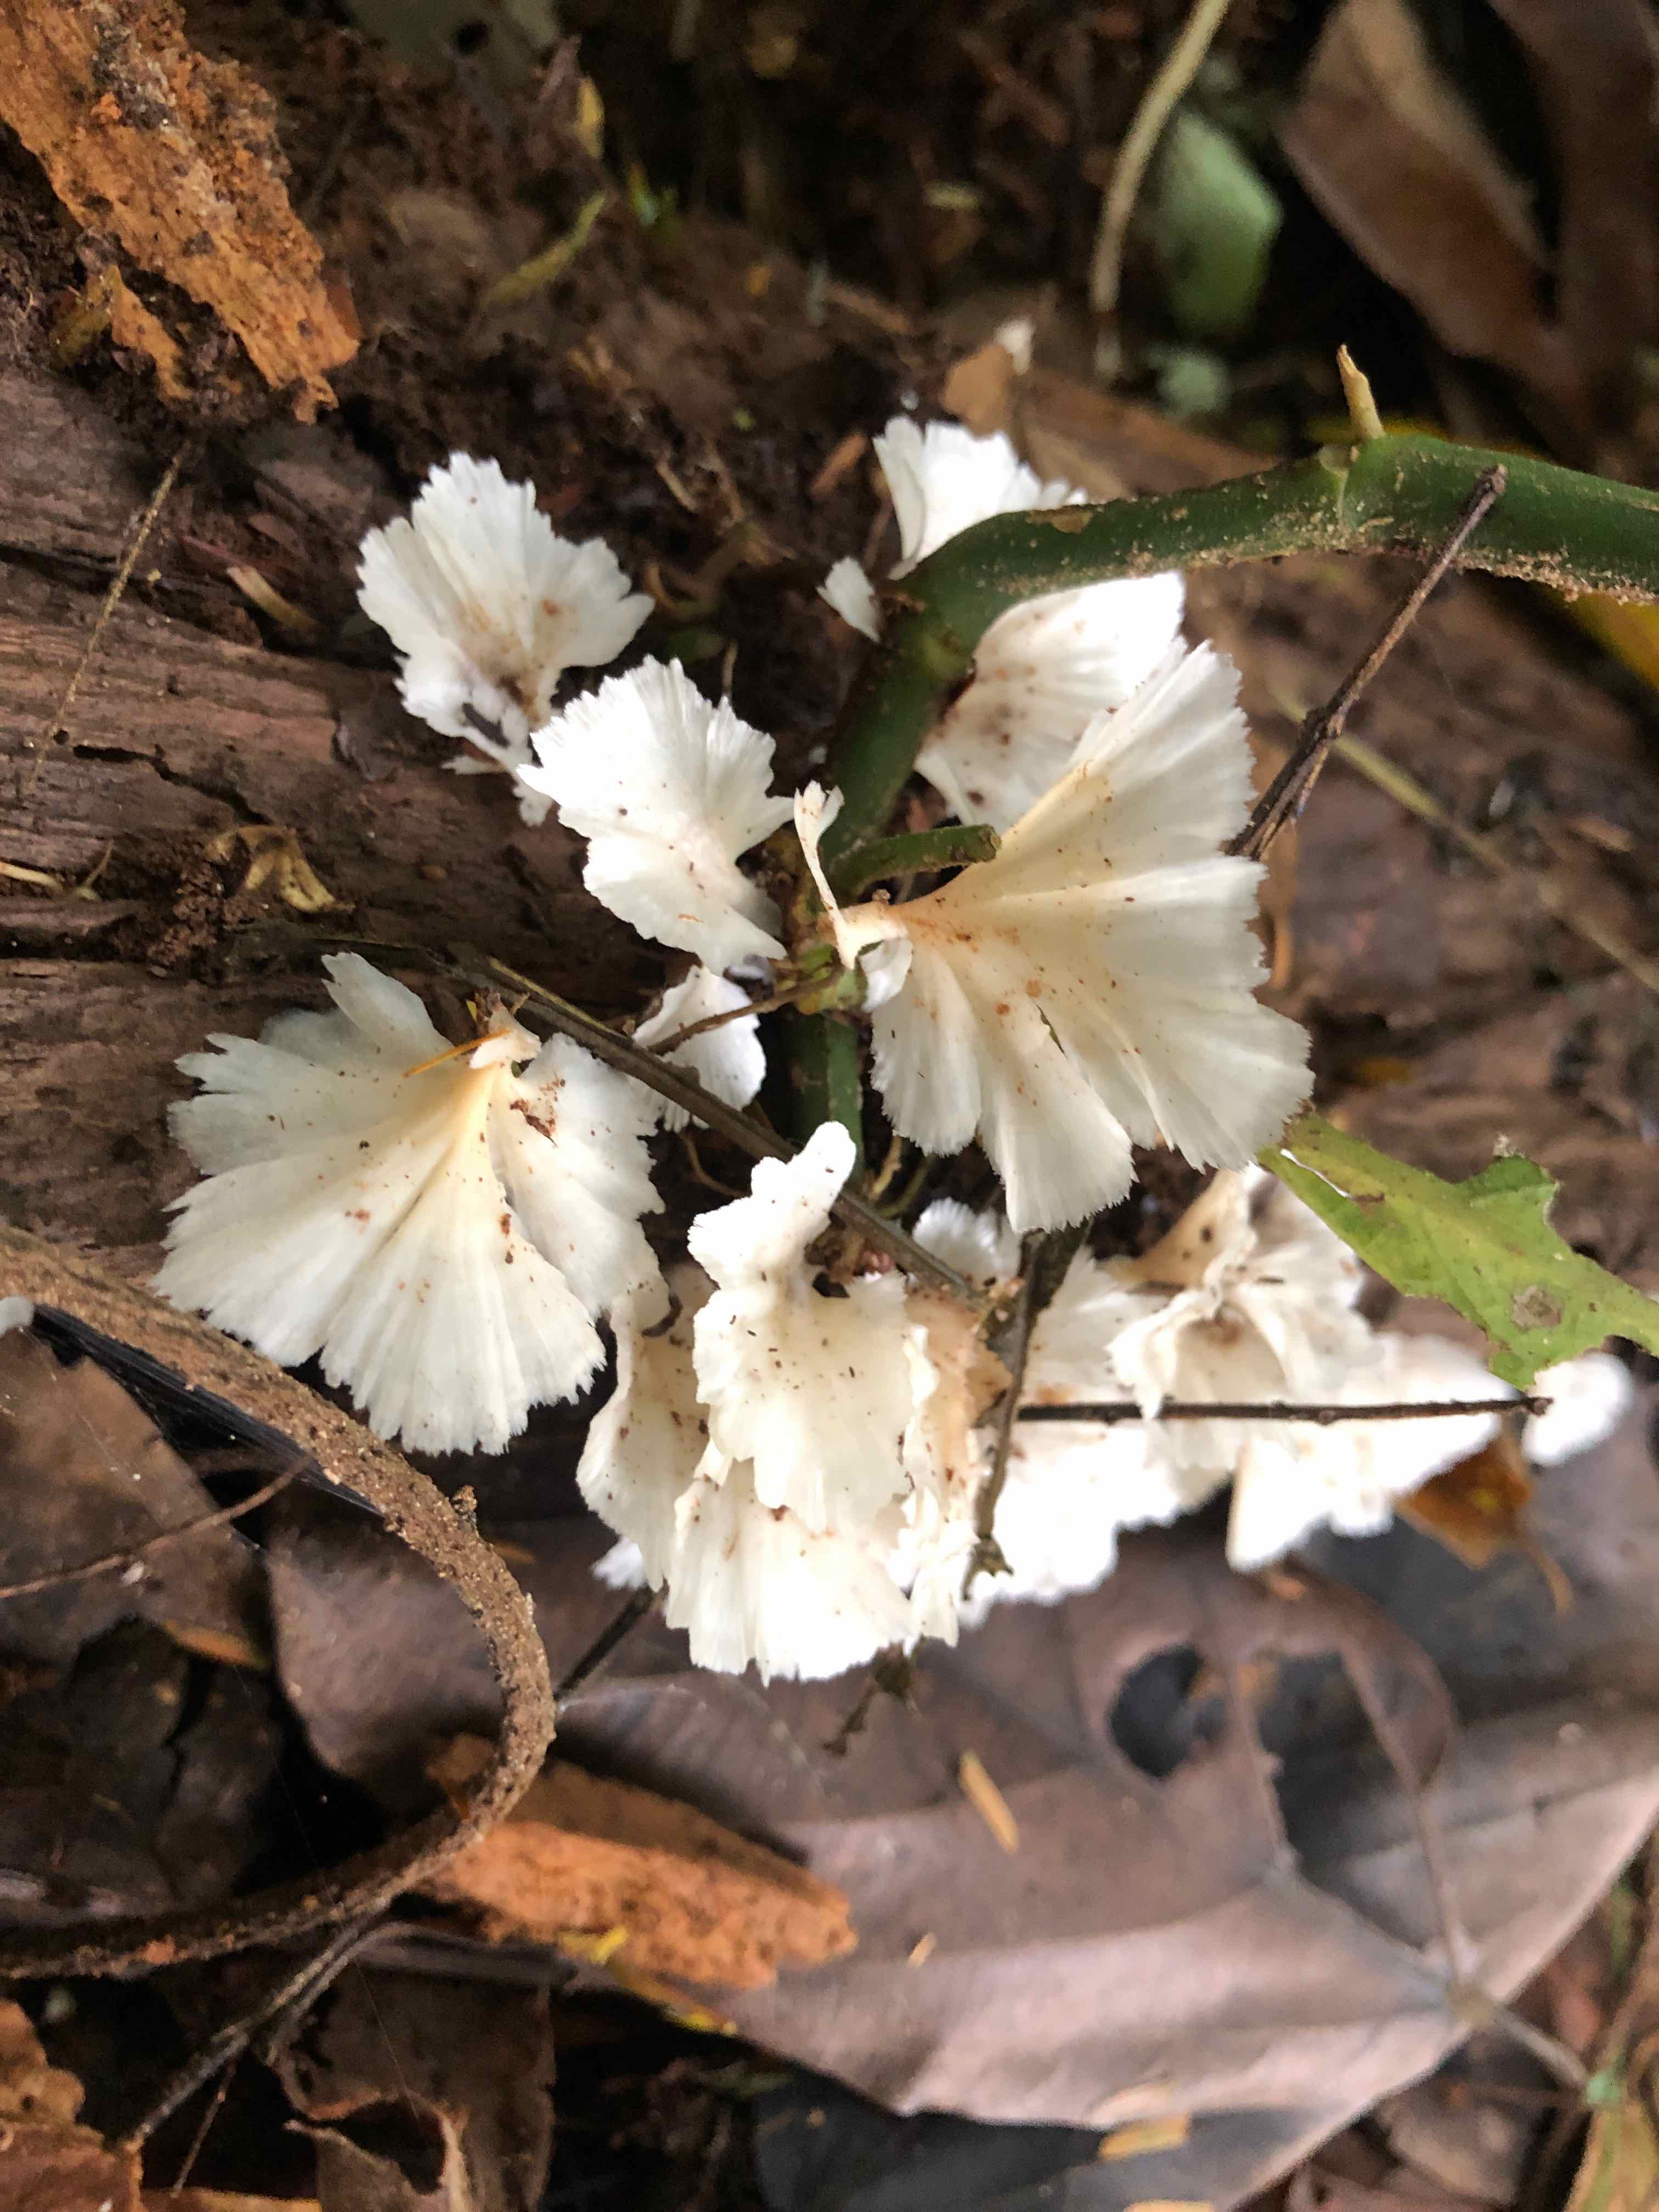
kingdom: Fungi
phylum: Basidiomycota
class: Agaricomycetes
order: Hymenochaetales
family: Rickenellaceae
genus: Cotylidia
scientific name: Cotylidia
